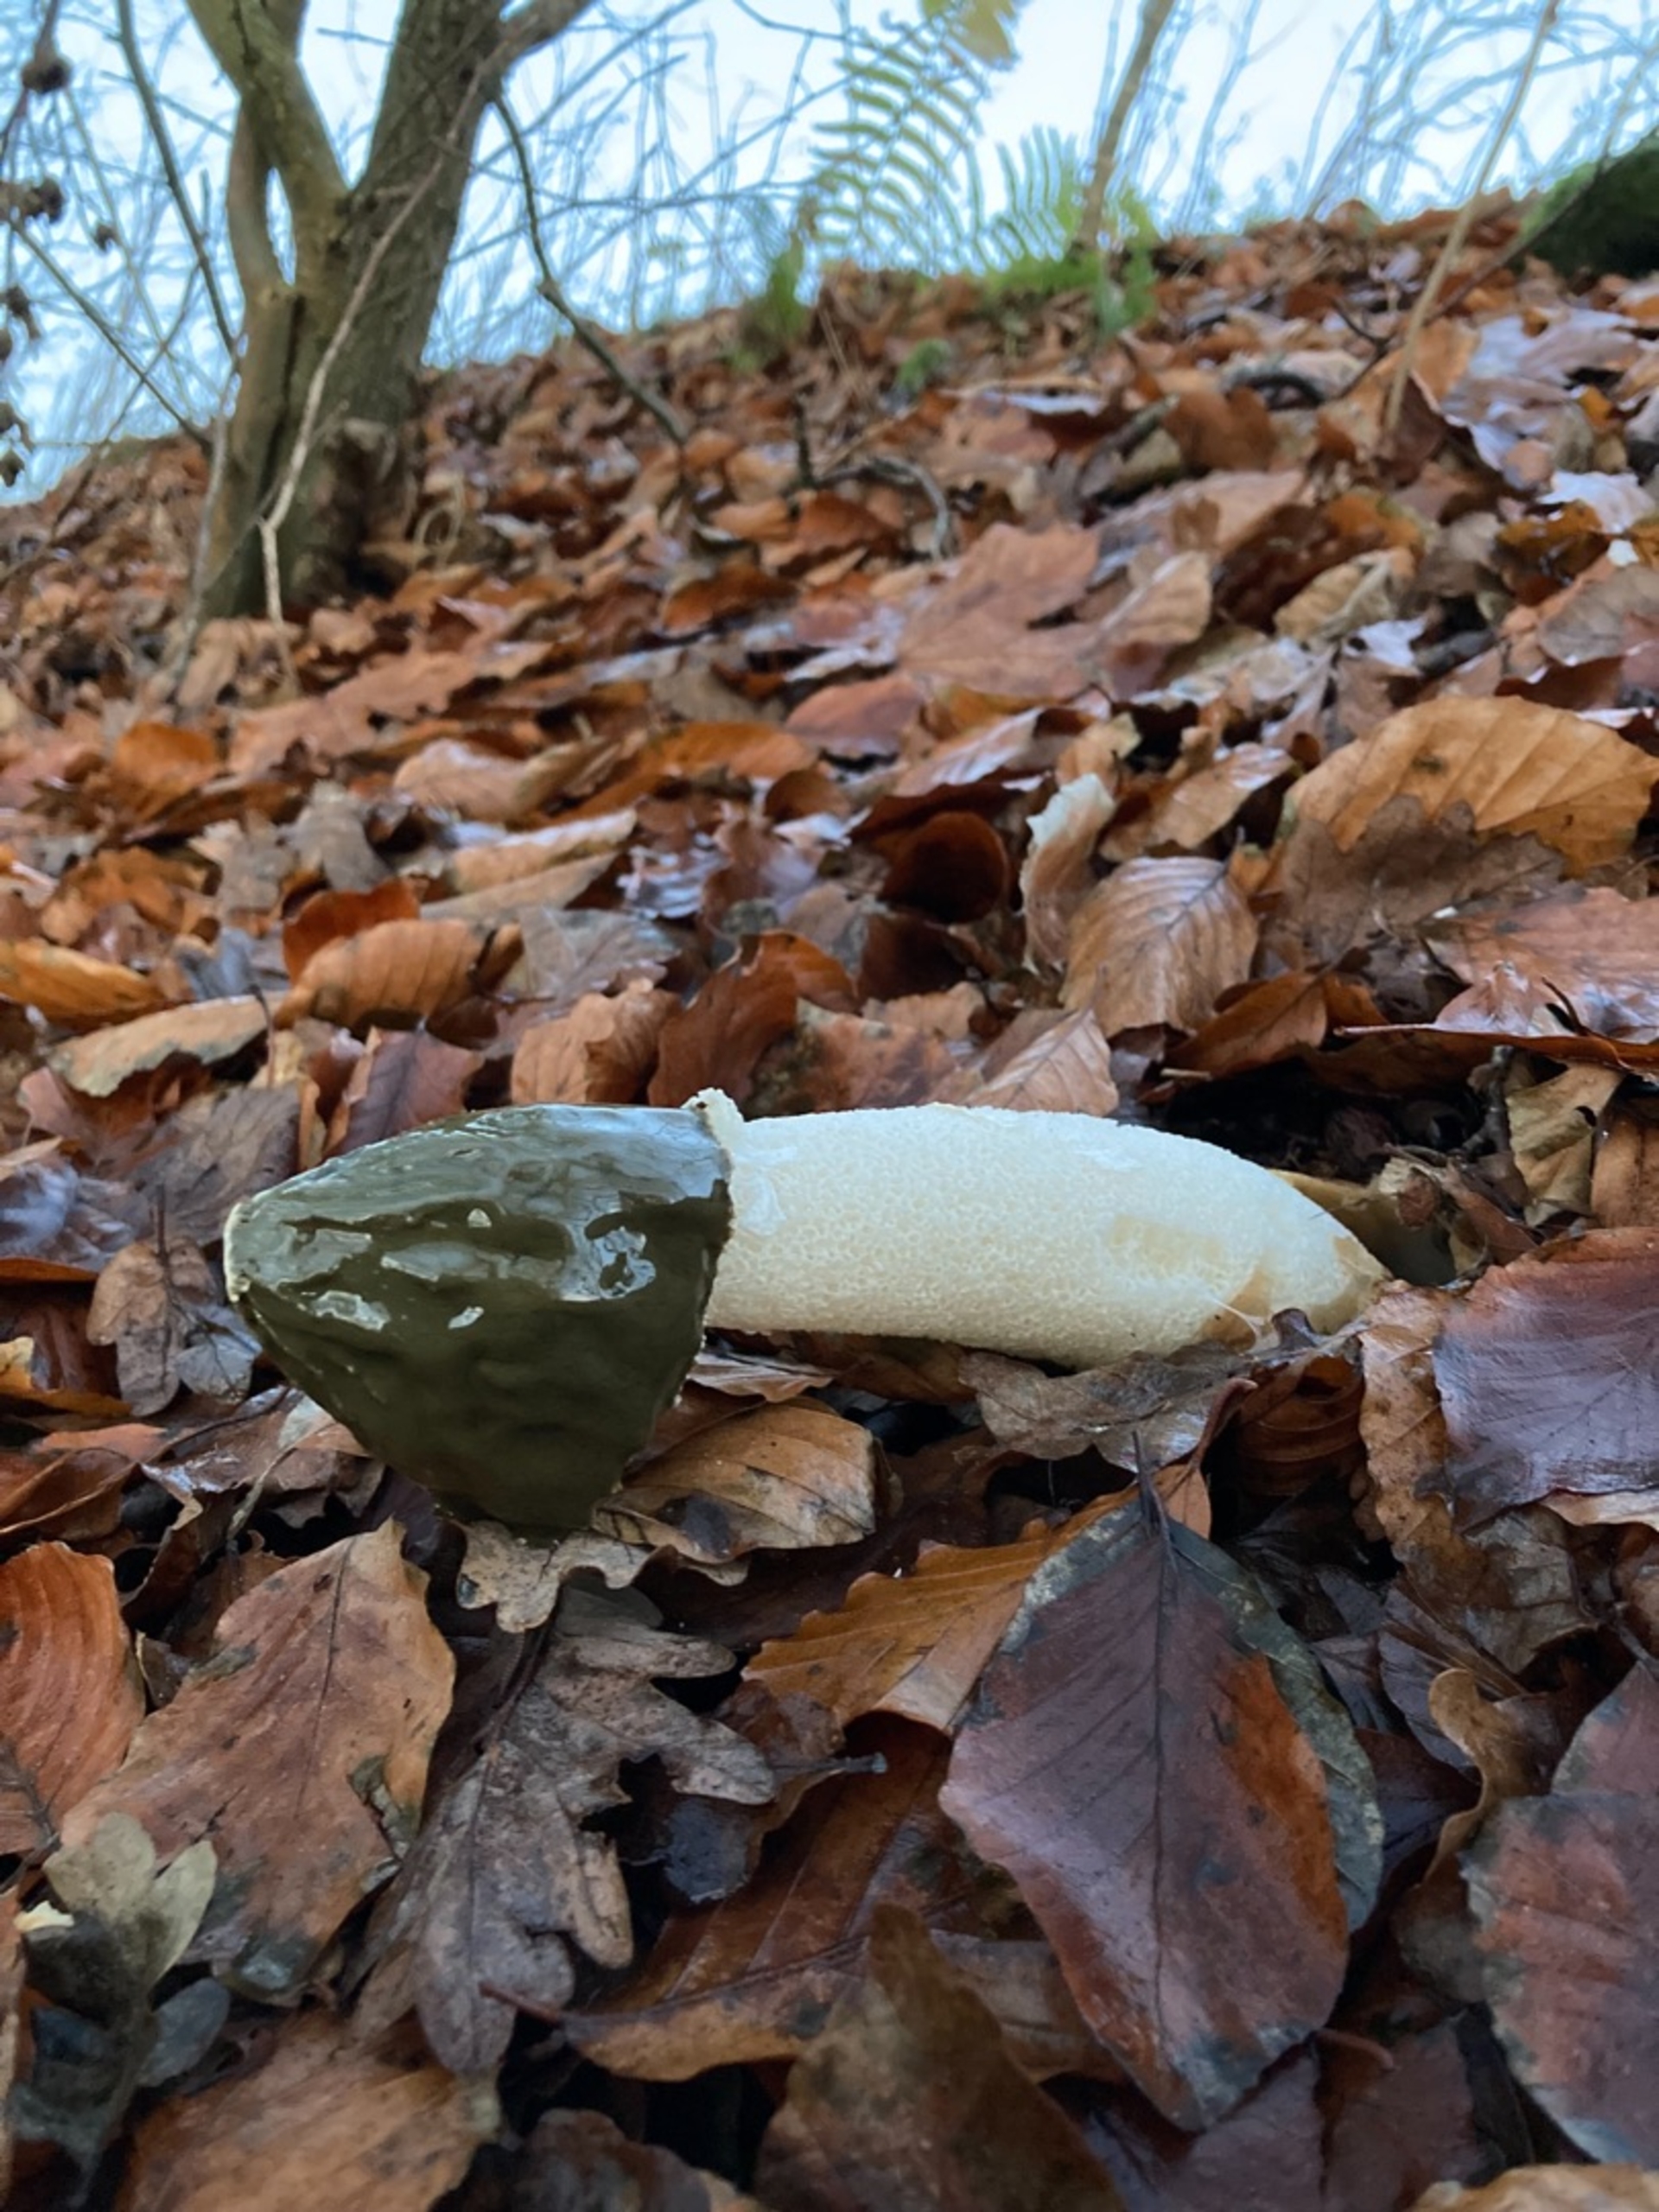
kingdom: Fungi
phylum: Basidiomycota
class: Agaricomycetes
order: Phallales
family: Phallaceae
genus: Phallus
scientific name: Phallus impudicus
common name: Almindelig stinksvamp
